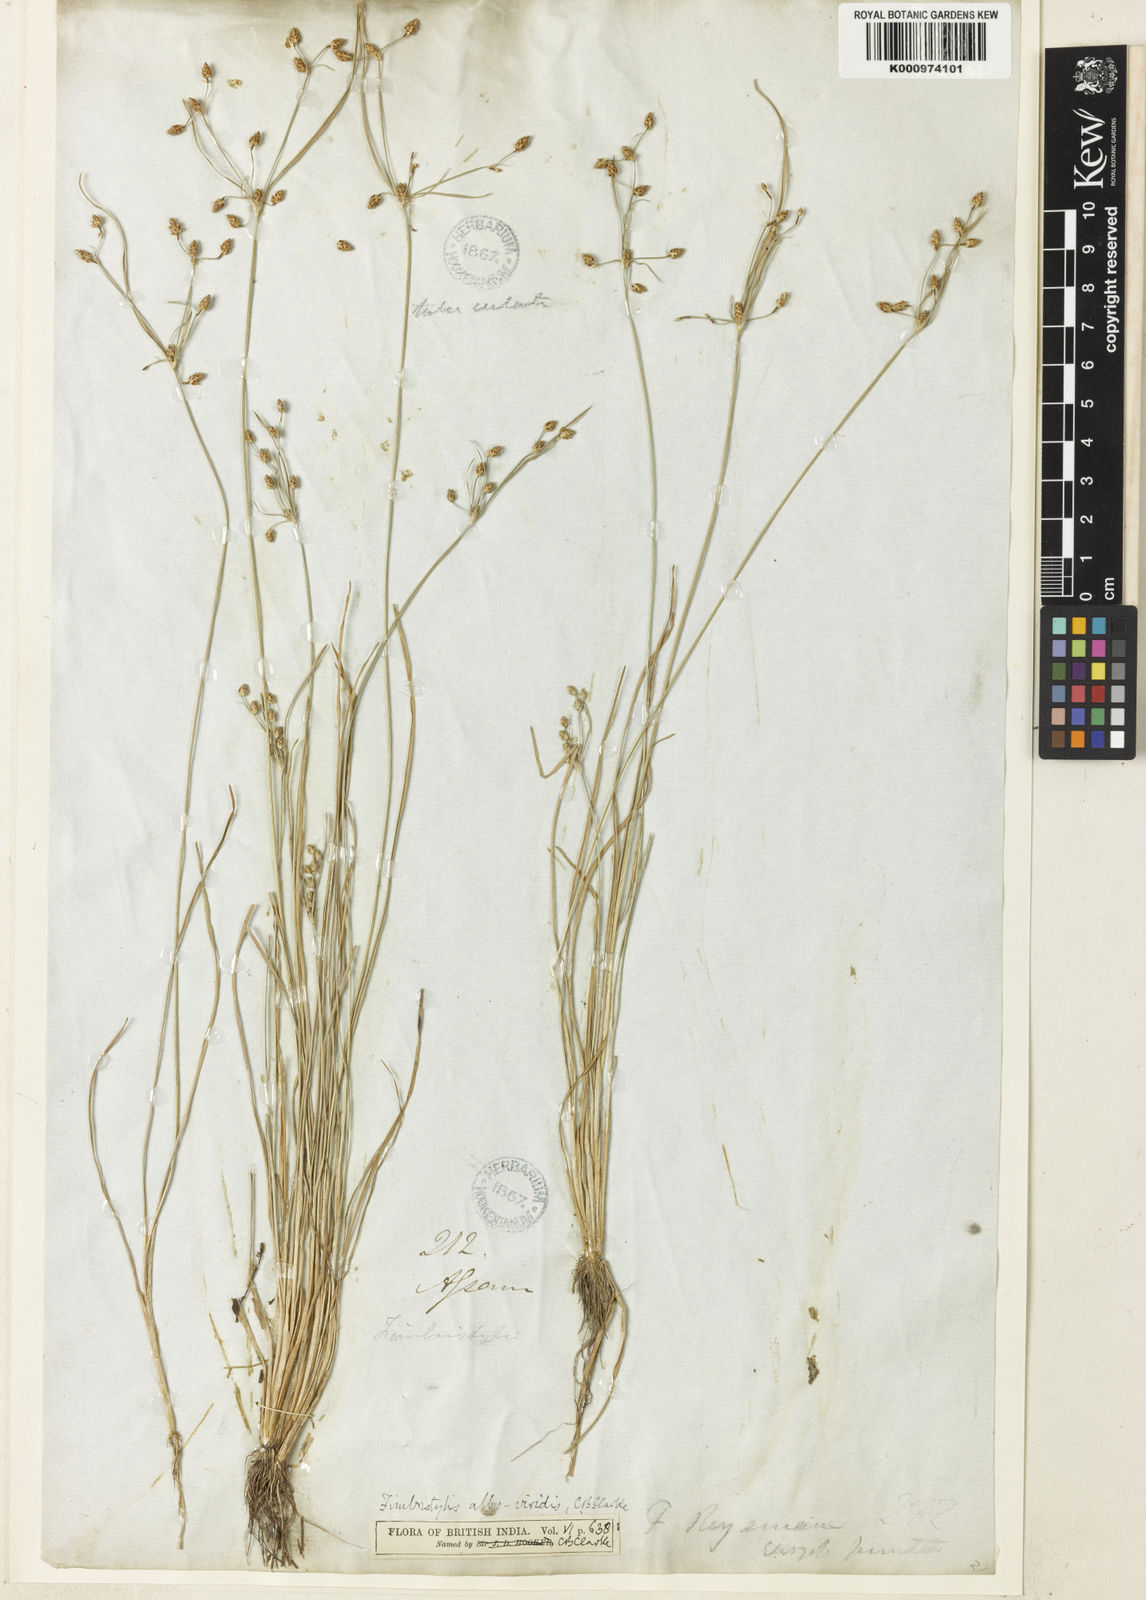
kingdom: Plantae
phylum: Tracheophyta
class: Liliopsida
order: Poales
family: Cyperaceae
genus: Fimbristylis
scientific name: Fimbristylis alboviridis
